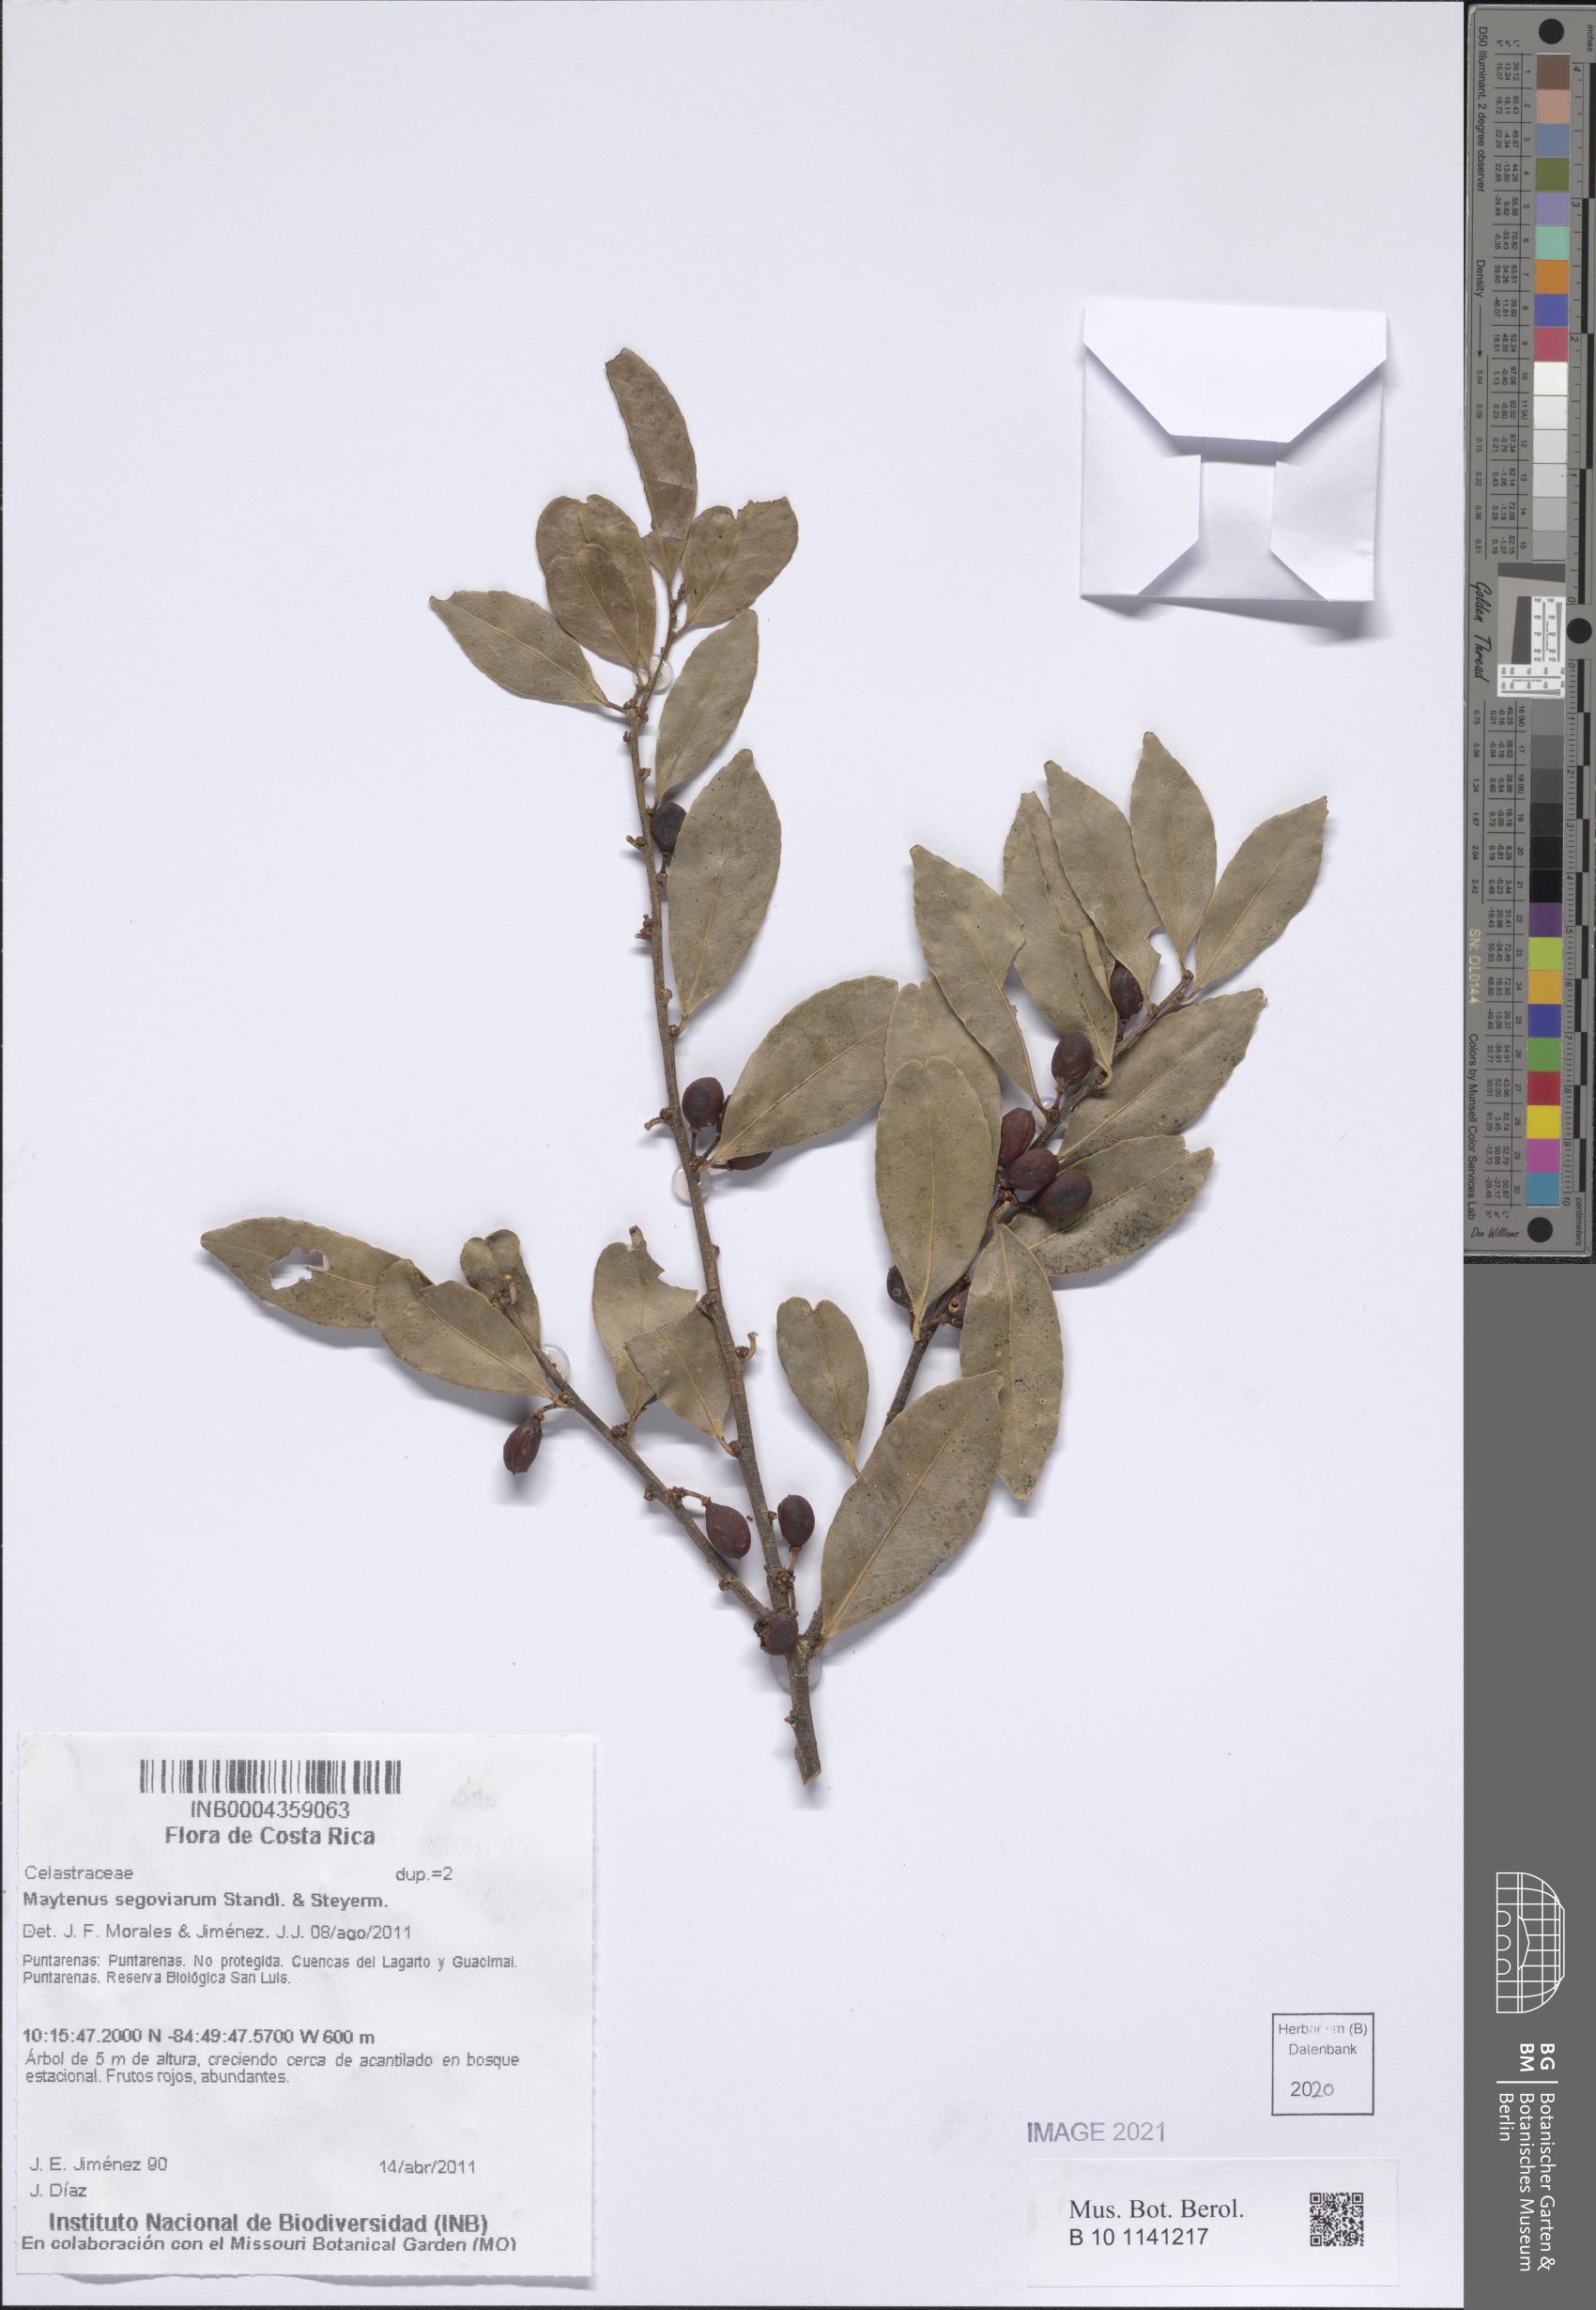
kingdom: Plantae
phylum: Tracheophyta
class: Magnoliopsida
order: Celastrales
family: Celastraceae
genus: Monteverdia
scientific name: Monteverdia segoviarum
